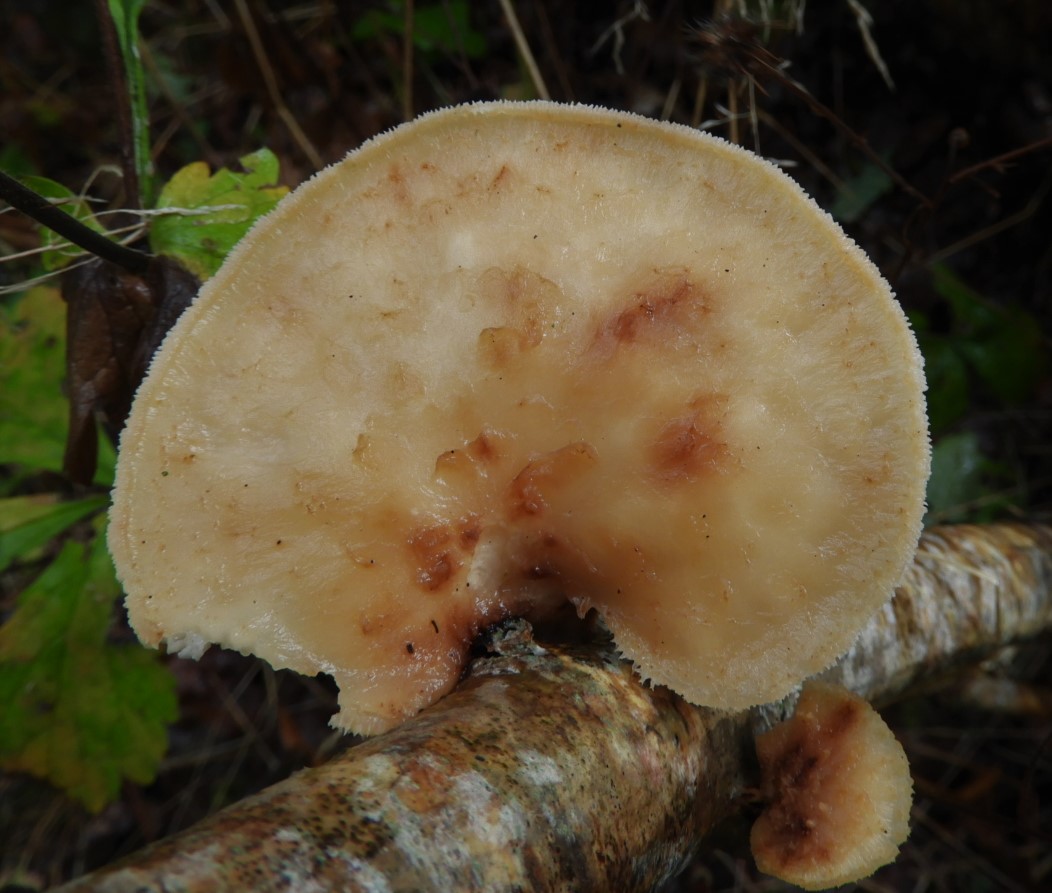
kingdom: Fungi
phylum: Basidiomycota
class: Agaricomycetes
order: Polyporales
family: Polyporaceae
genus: Polyporus
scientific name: Polyporus tuberaster
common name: knoldet stilkporesvamp
